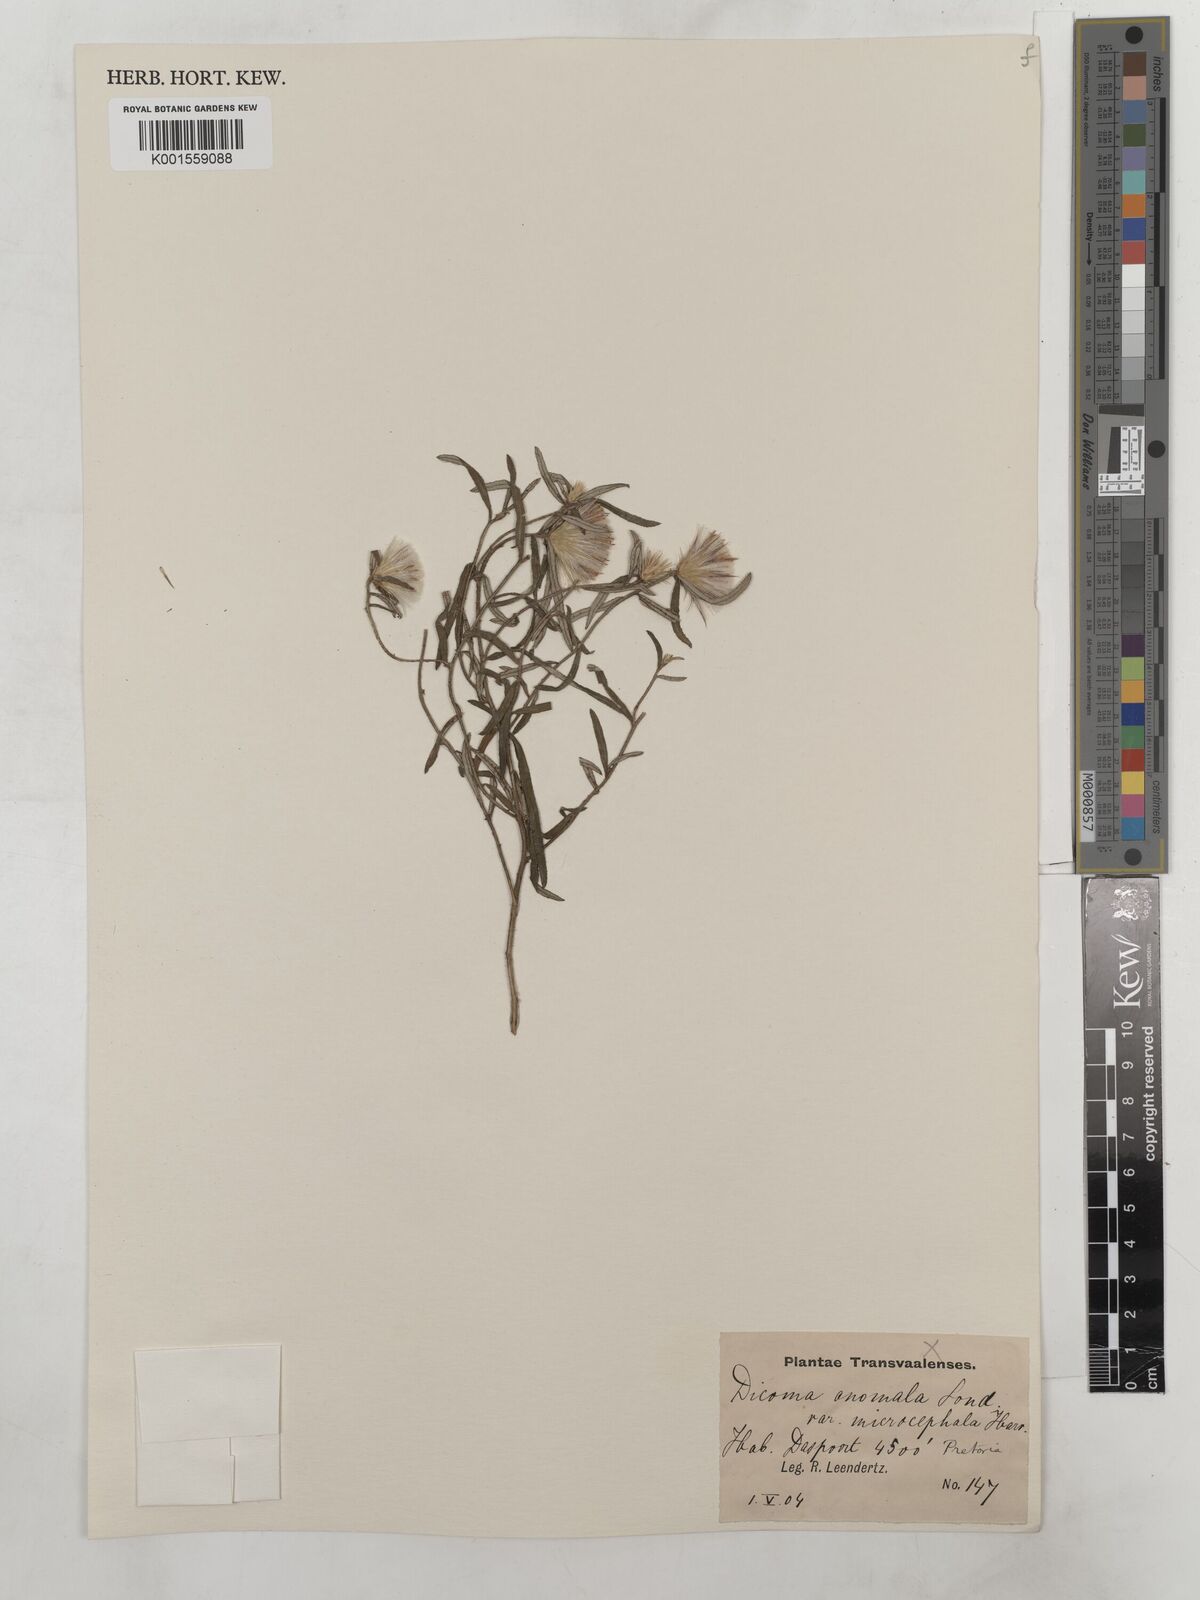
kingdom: Plantae
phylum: Tracheophyta
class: Magnoliopsida
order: Asterales
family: Asteraceae
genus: Dicoma
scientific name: Dicoma anomala
